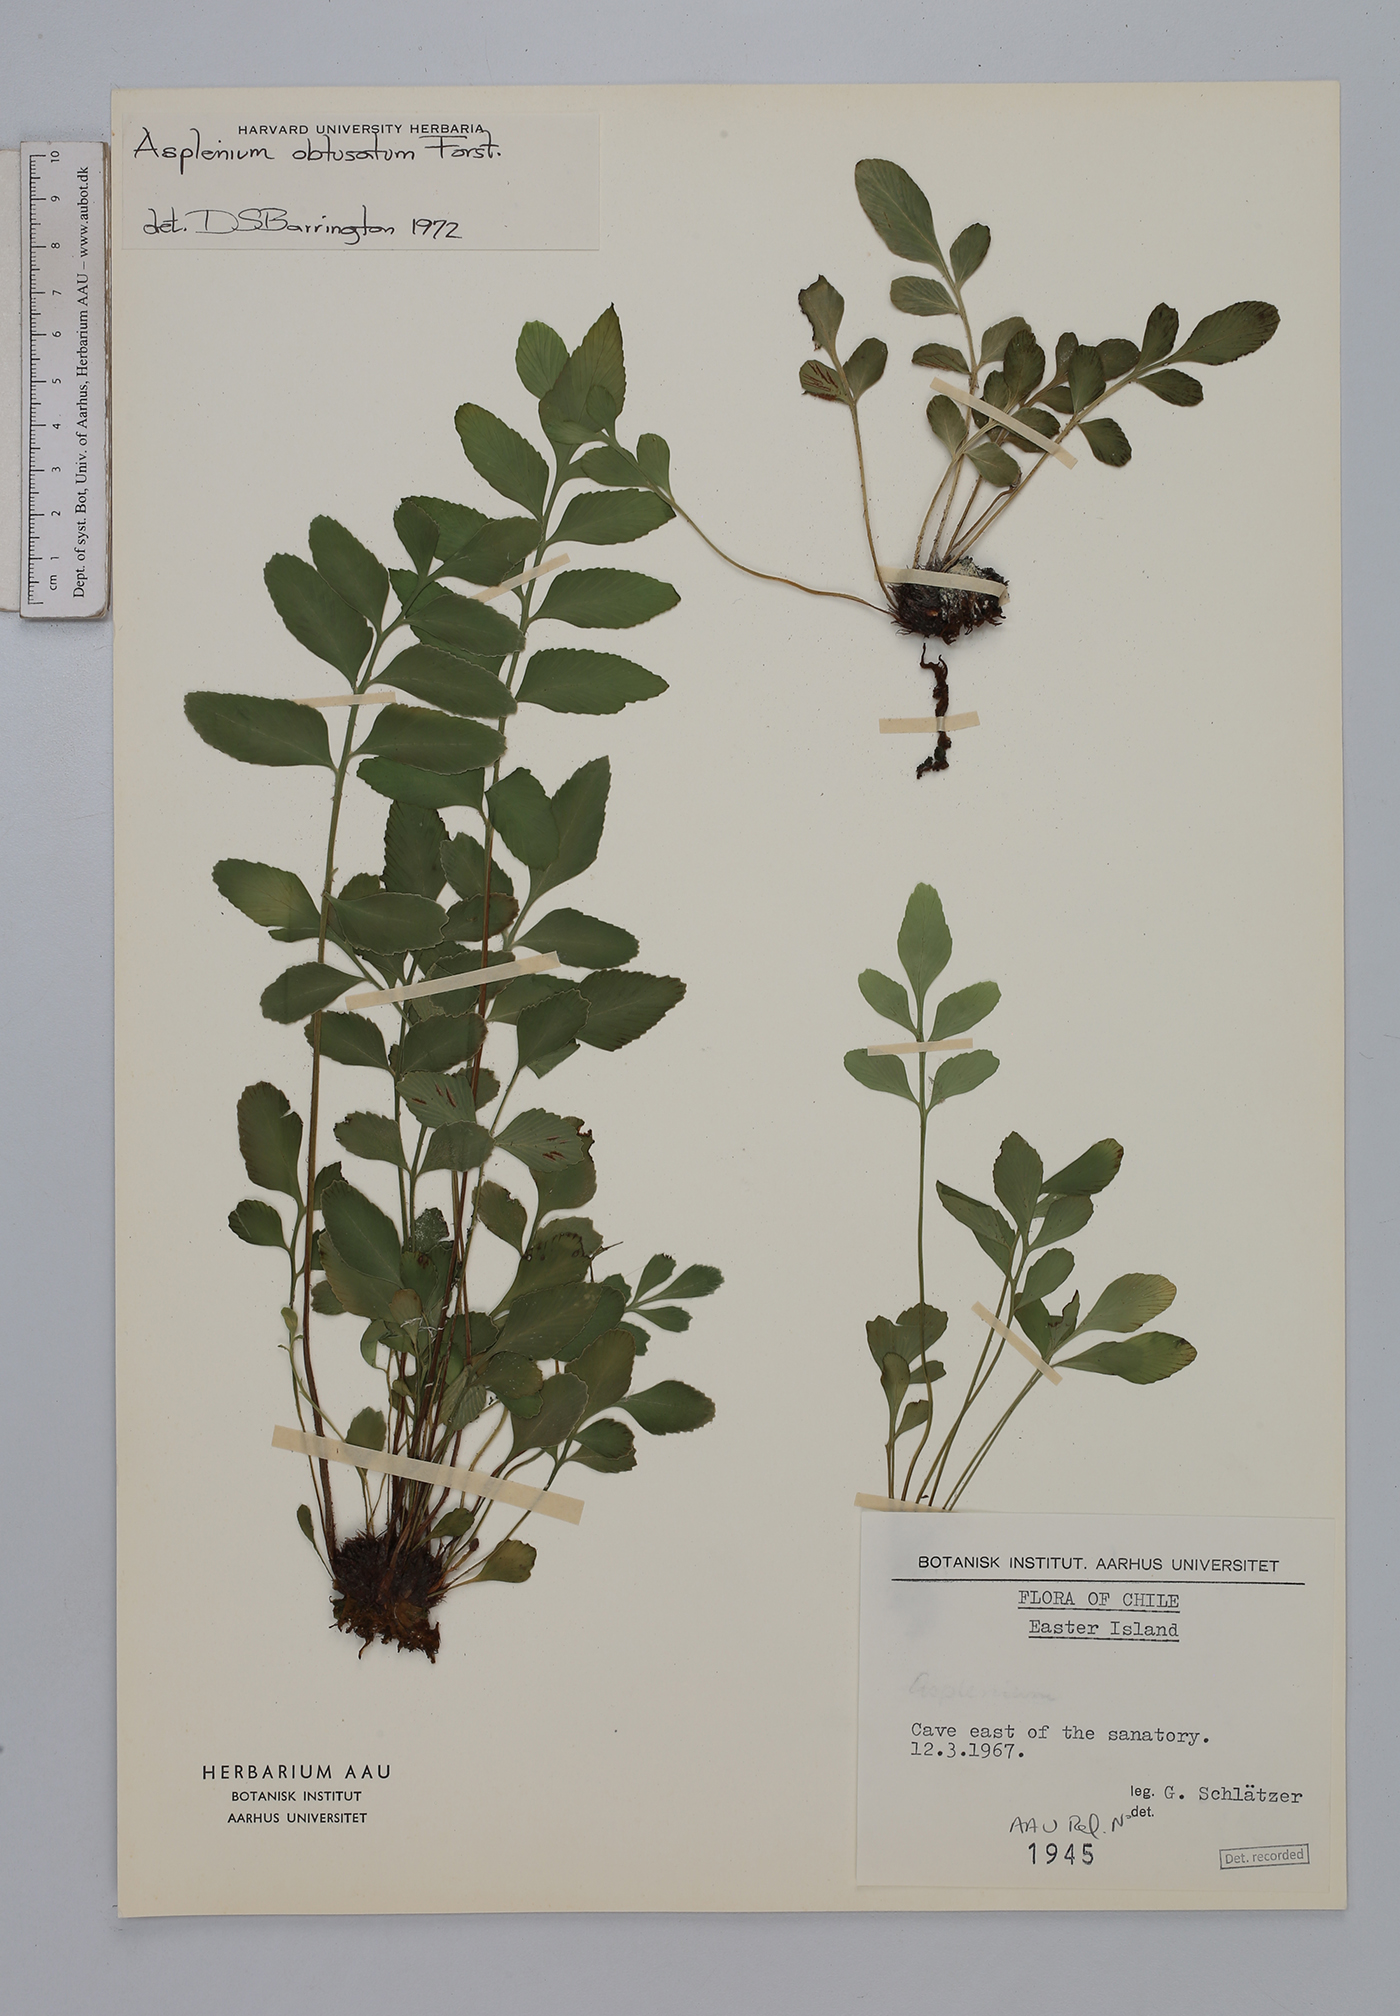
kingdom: Plantae
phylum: Tracheophyta
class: Polypodiopsida
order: Polypodiales
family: Aspleniaceae
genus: Asplenium
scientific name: Asplenium obtusatum
